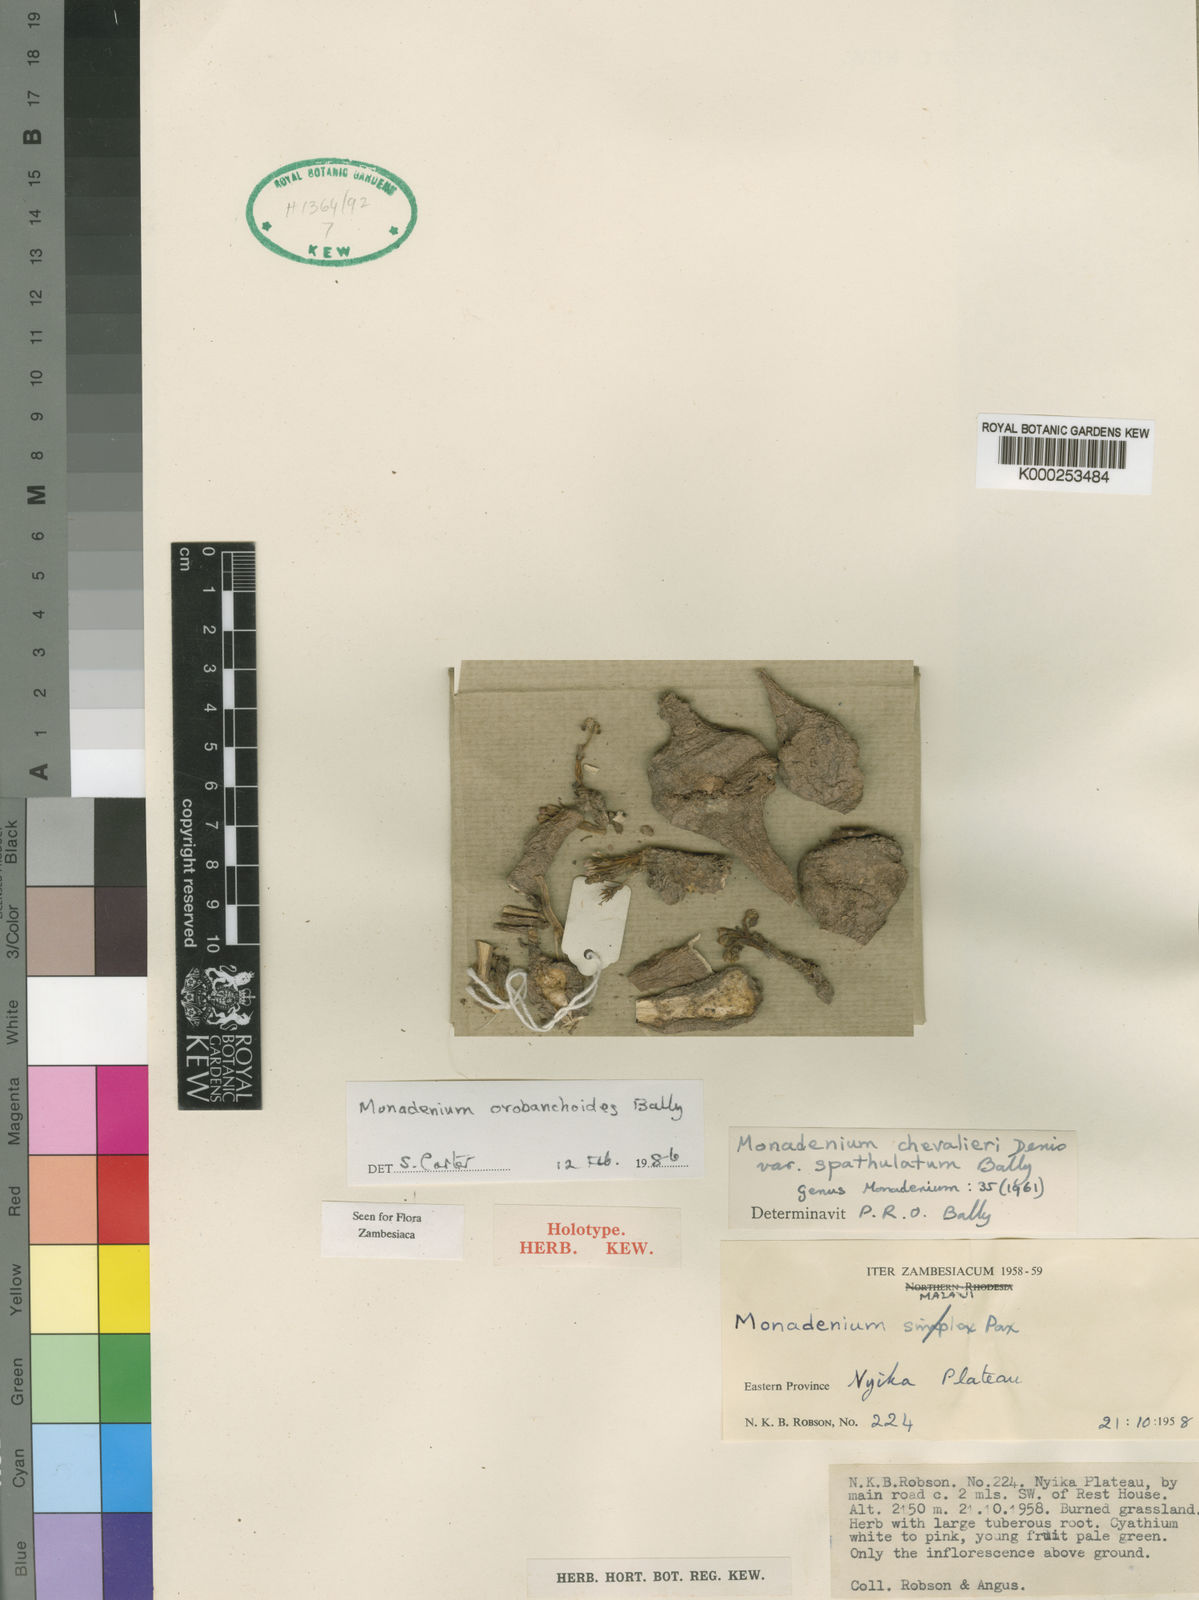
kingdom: Plantae
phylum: Tracheophyta
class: Magnoliopsida
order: Malpighiales
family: Euphorbiaceae
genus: Euphorbia
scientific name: Euphorbia orobanchoides
